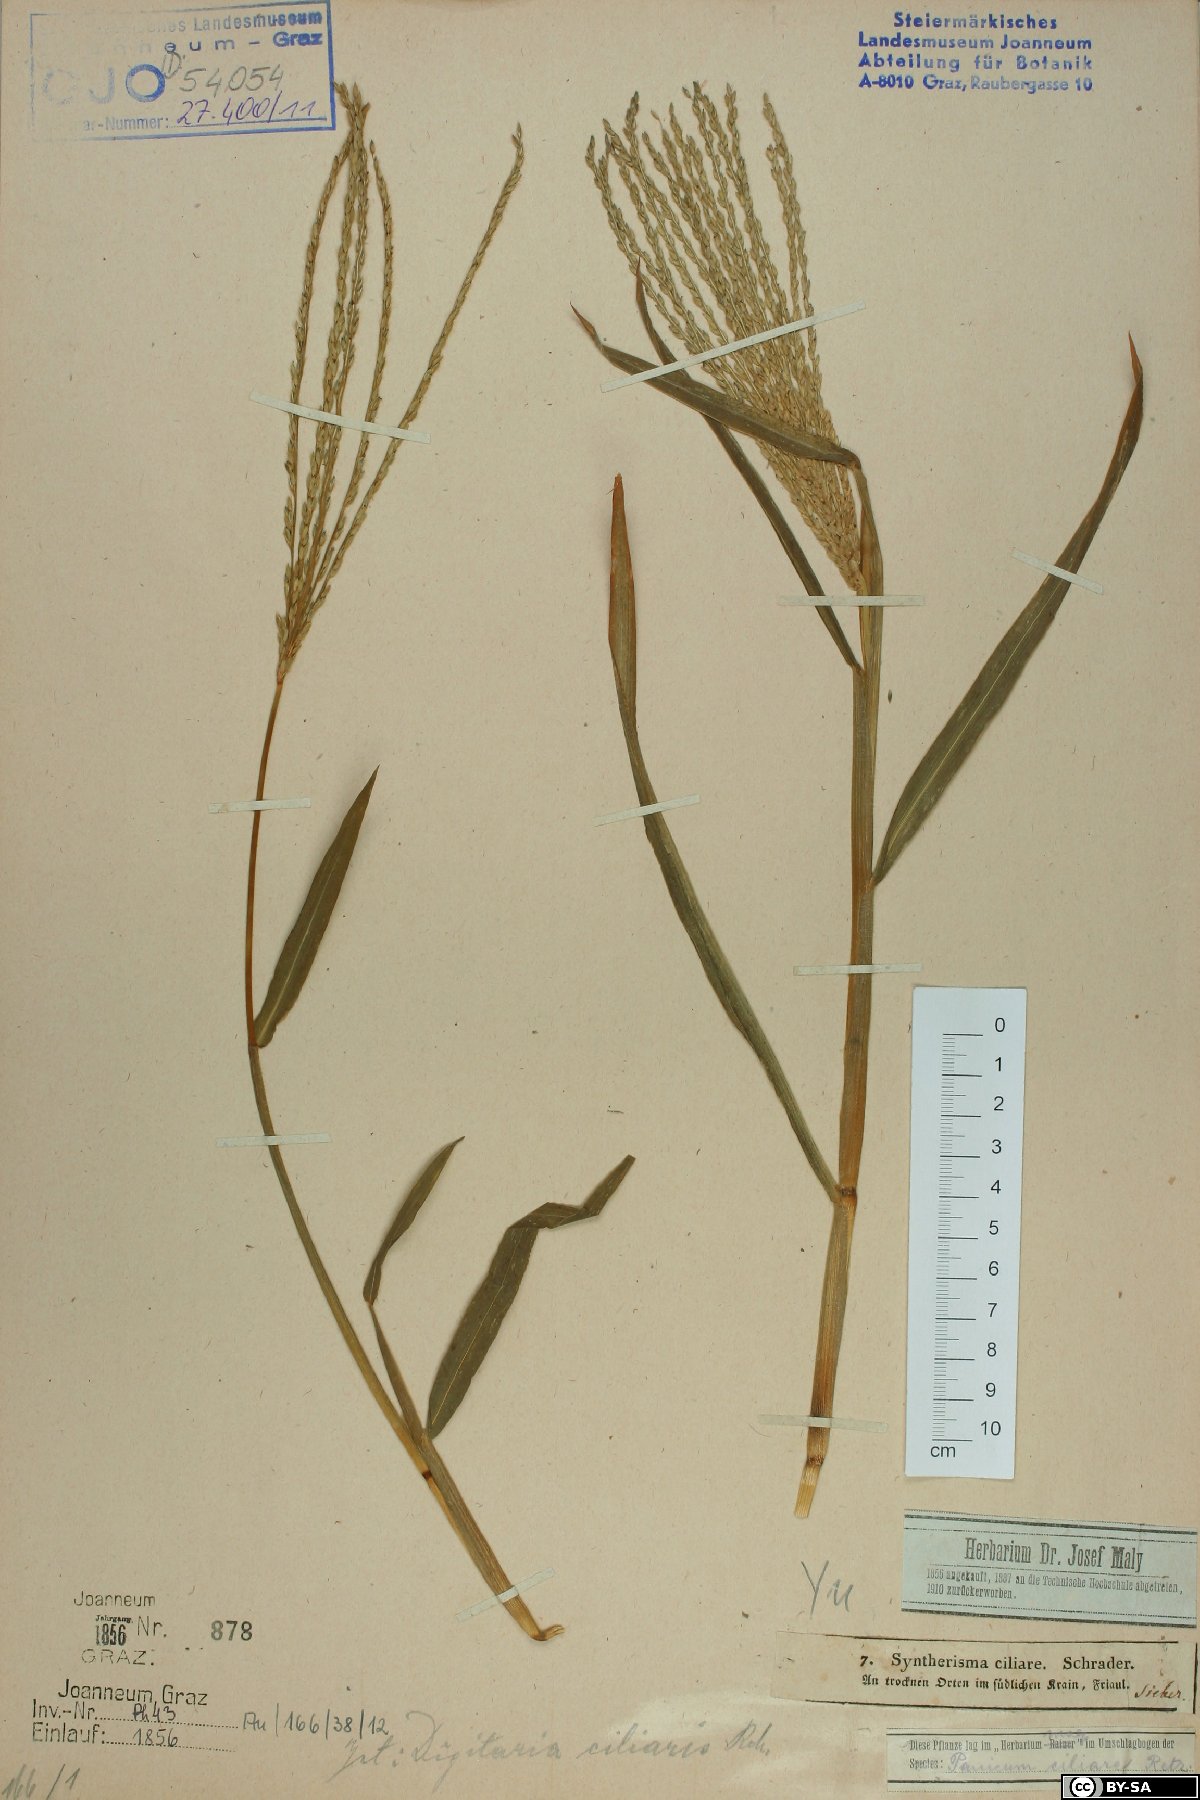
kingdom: Plantae
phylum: Tracheophyta
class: Liliopsida
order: Poales
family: Poaceae
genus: Digitaria
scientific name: Digitaria ciliaris
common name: Tropical finger-grass
